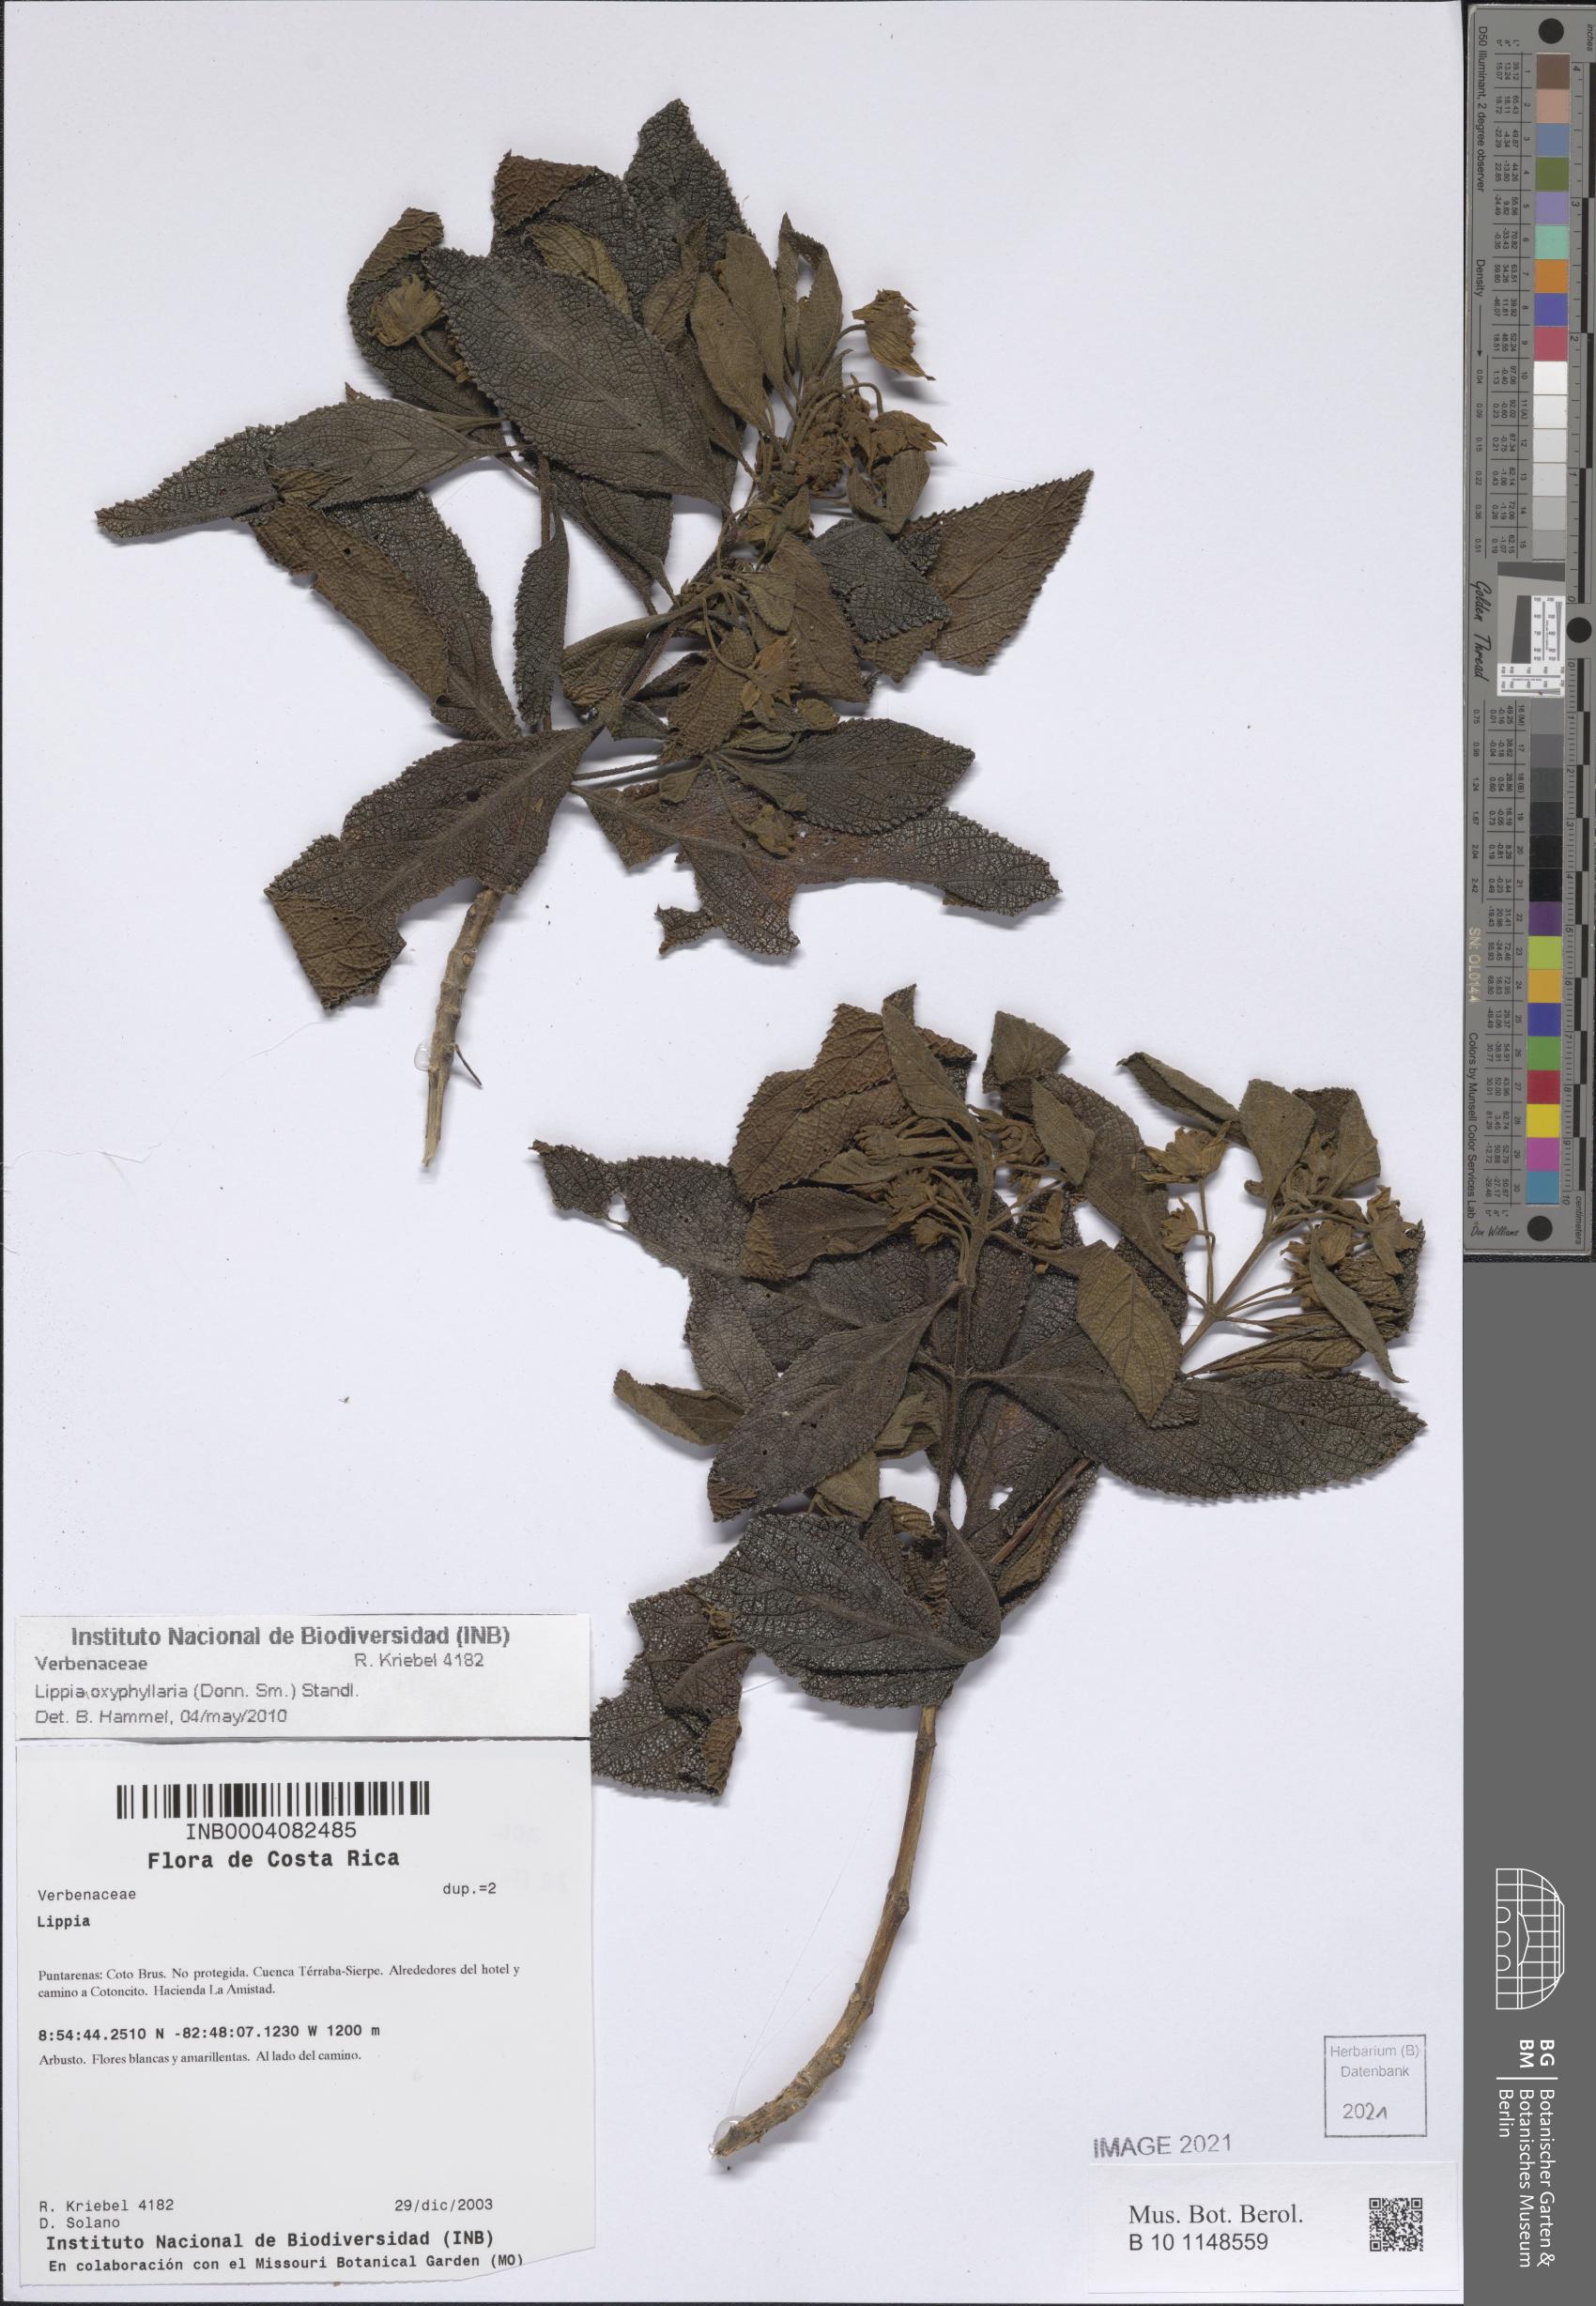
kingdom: Plantae
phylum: Tracheophyta
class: Magnoliopsida
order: Lamiales
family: Verbenaceae
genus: Lippia
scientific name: Lippia oxyphyllaria
